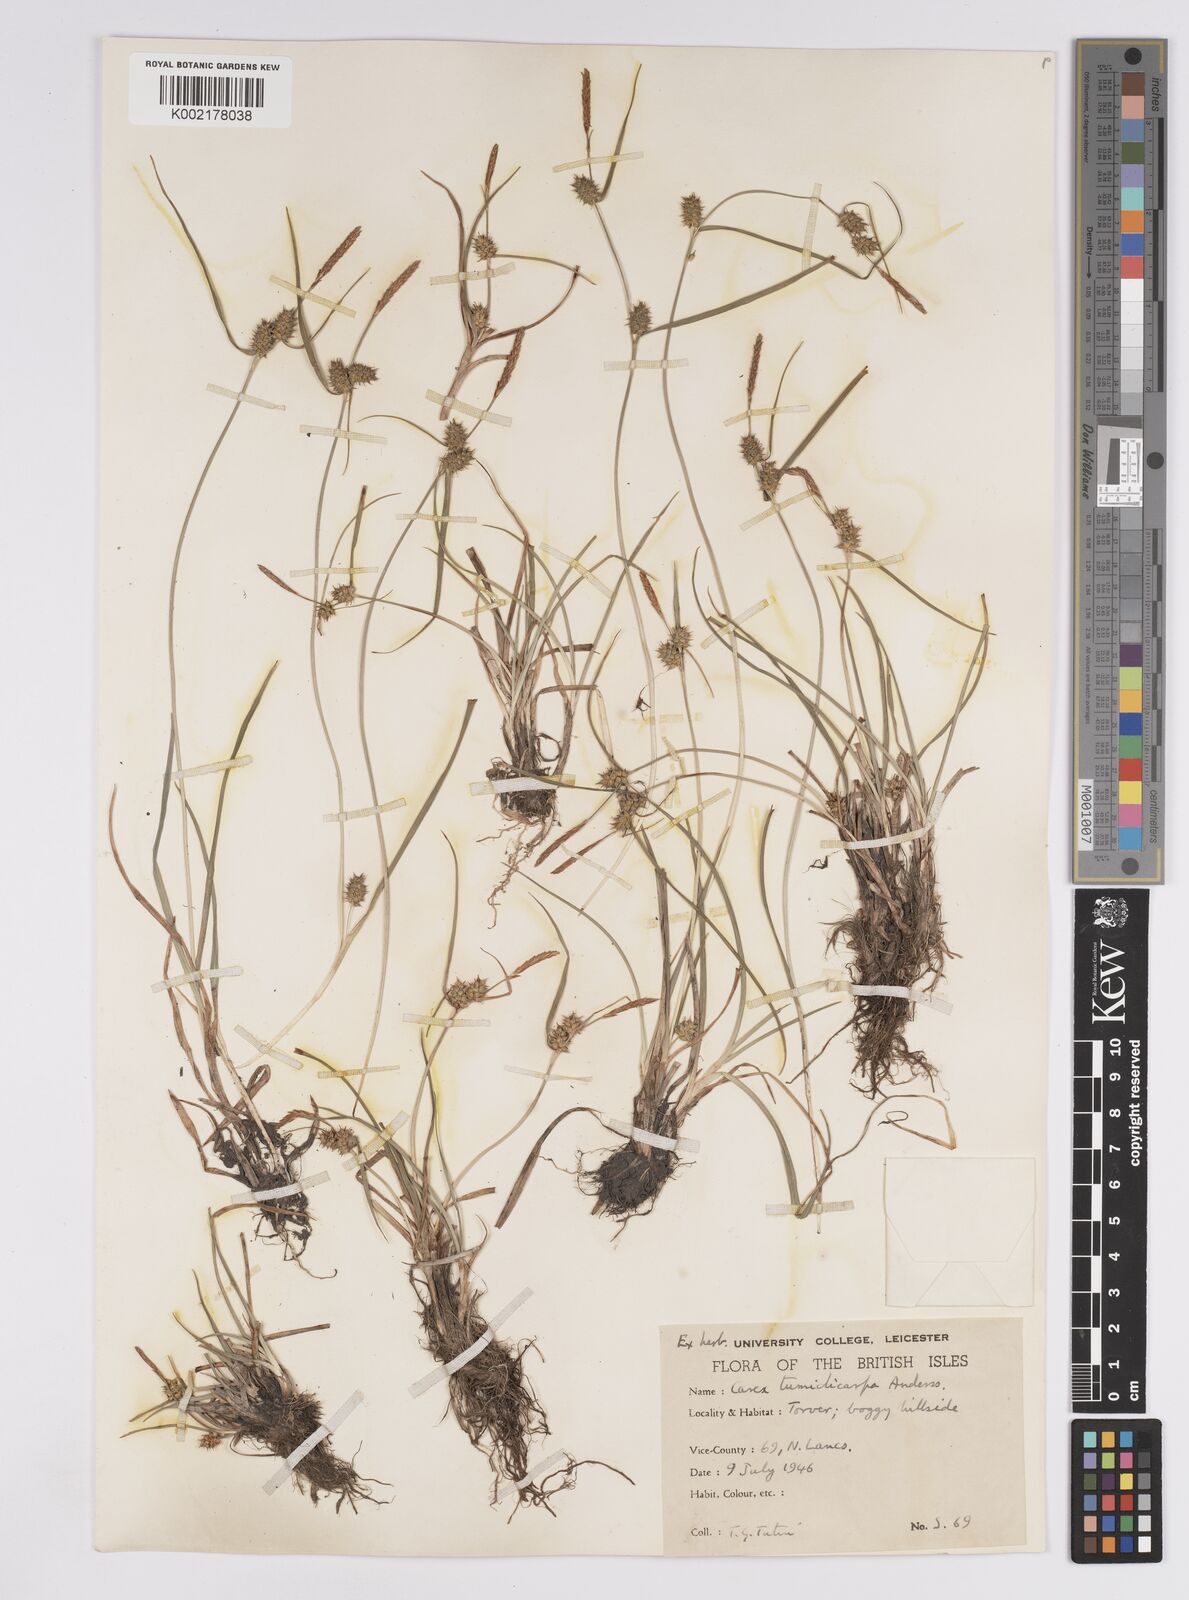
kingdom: Plantae
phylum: Tracheophyta
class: Liliopsida
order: Poales
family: Cyperaceae
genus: Carex
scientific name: Carex demissa
